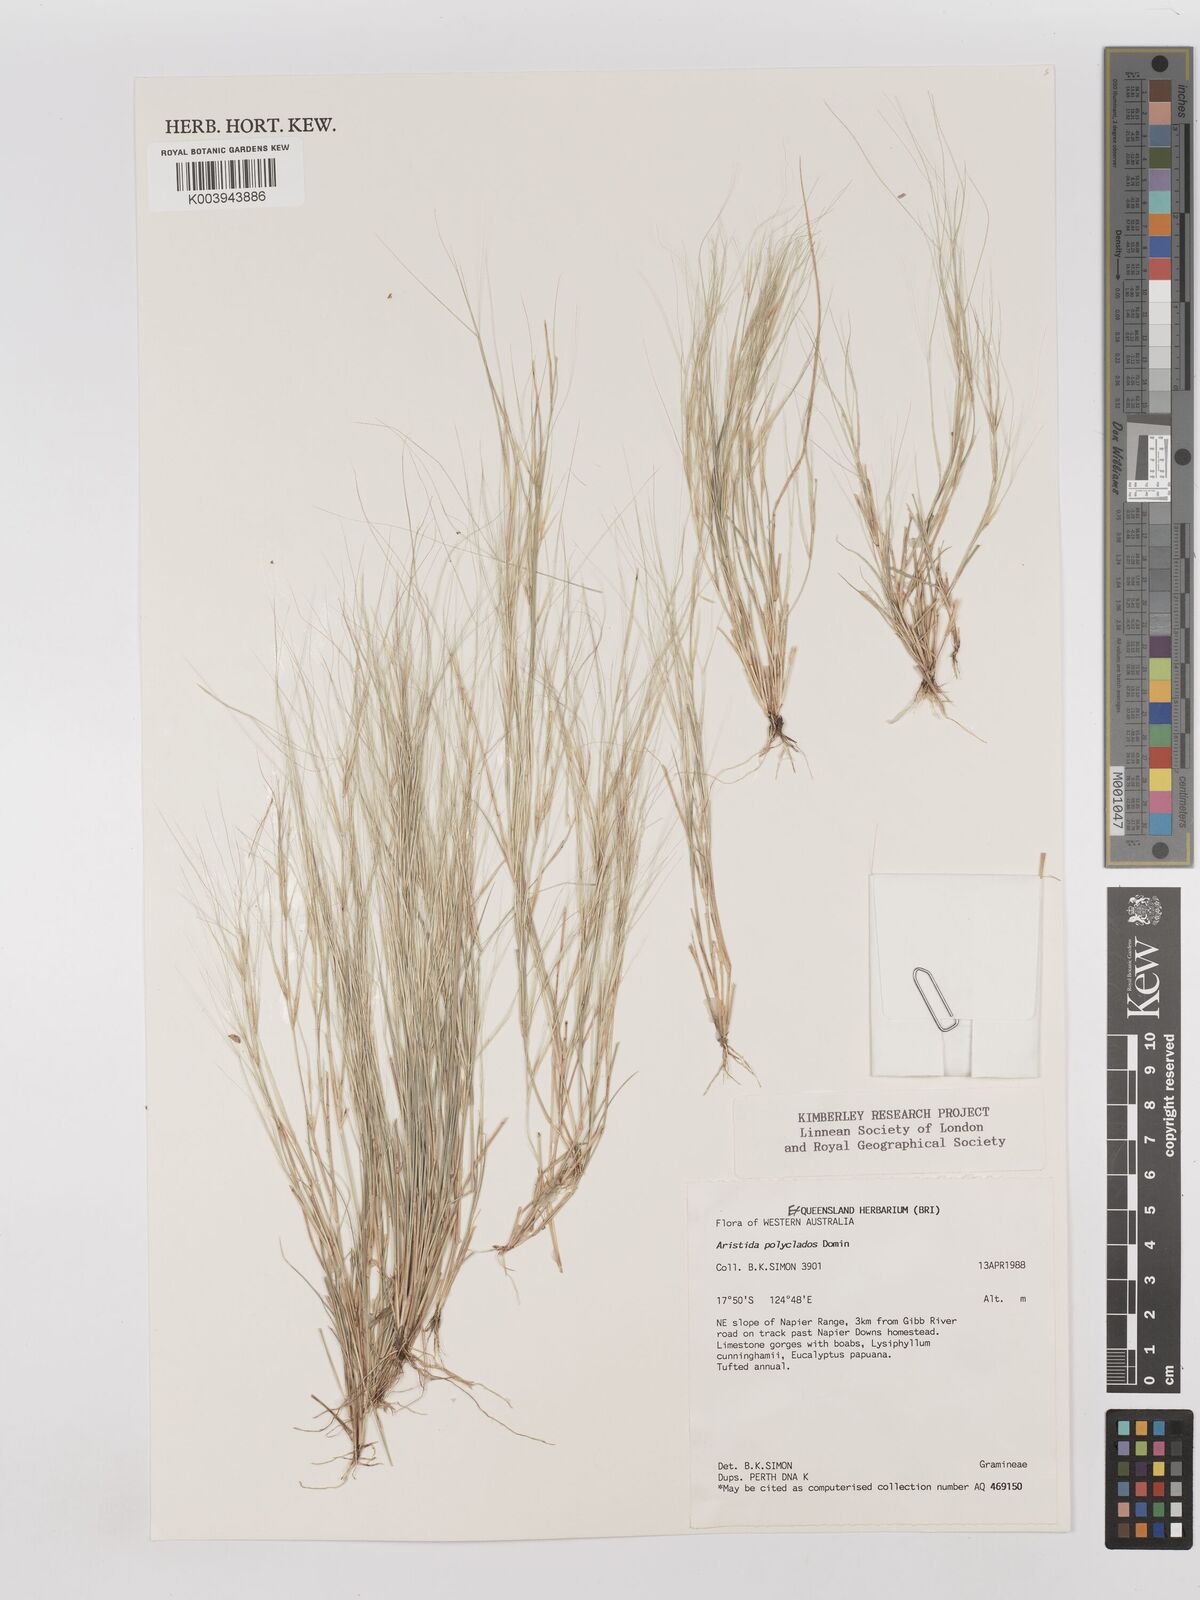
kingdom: Plantae
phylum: Tracheophyta
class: Liliopsida
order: Poales
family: Poaceae
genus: Aristida
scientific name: Aristida polyclados
